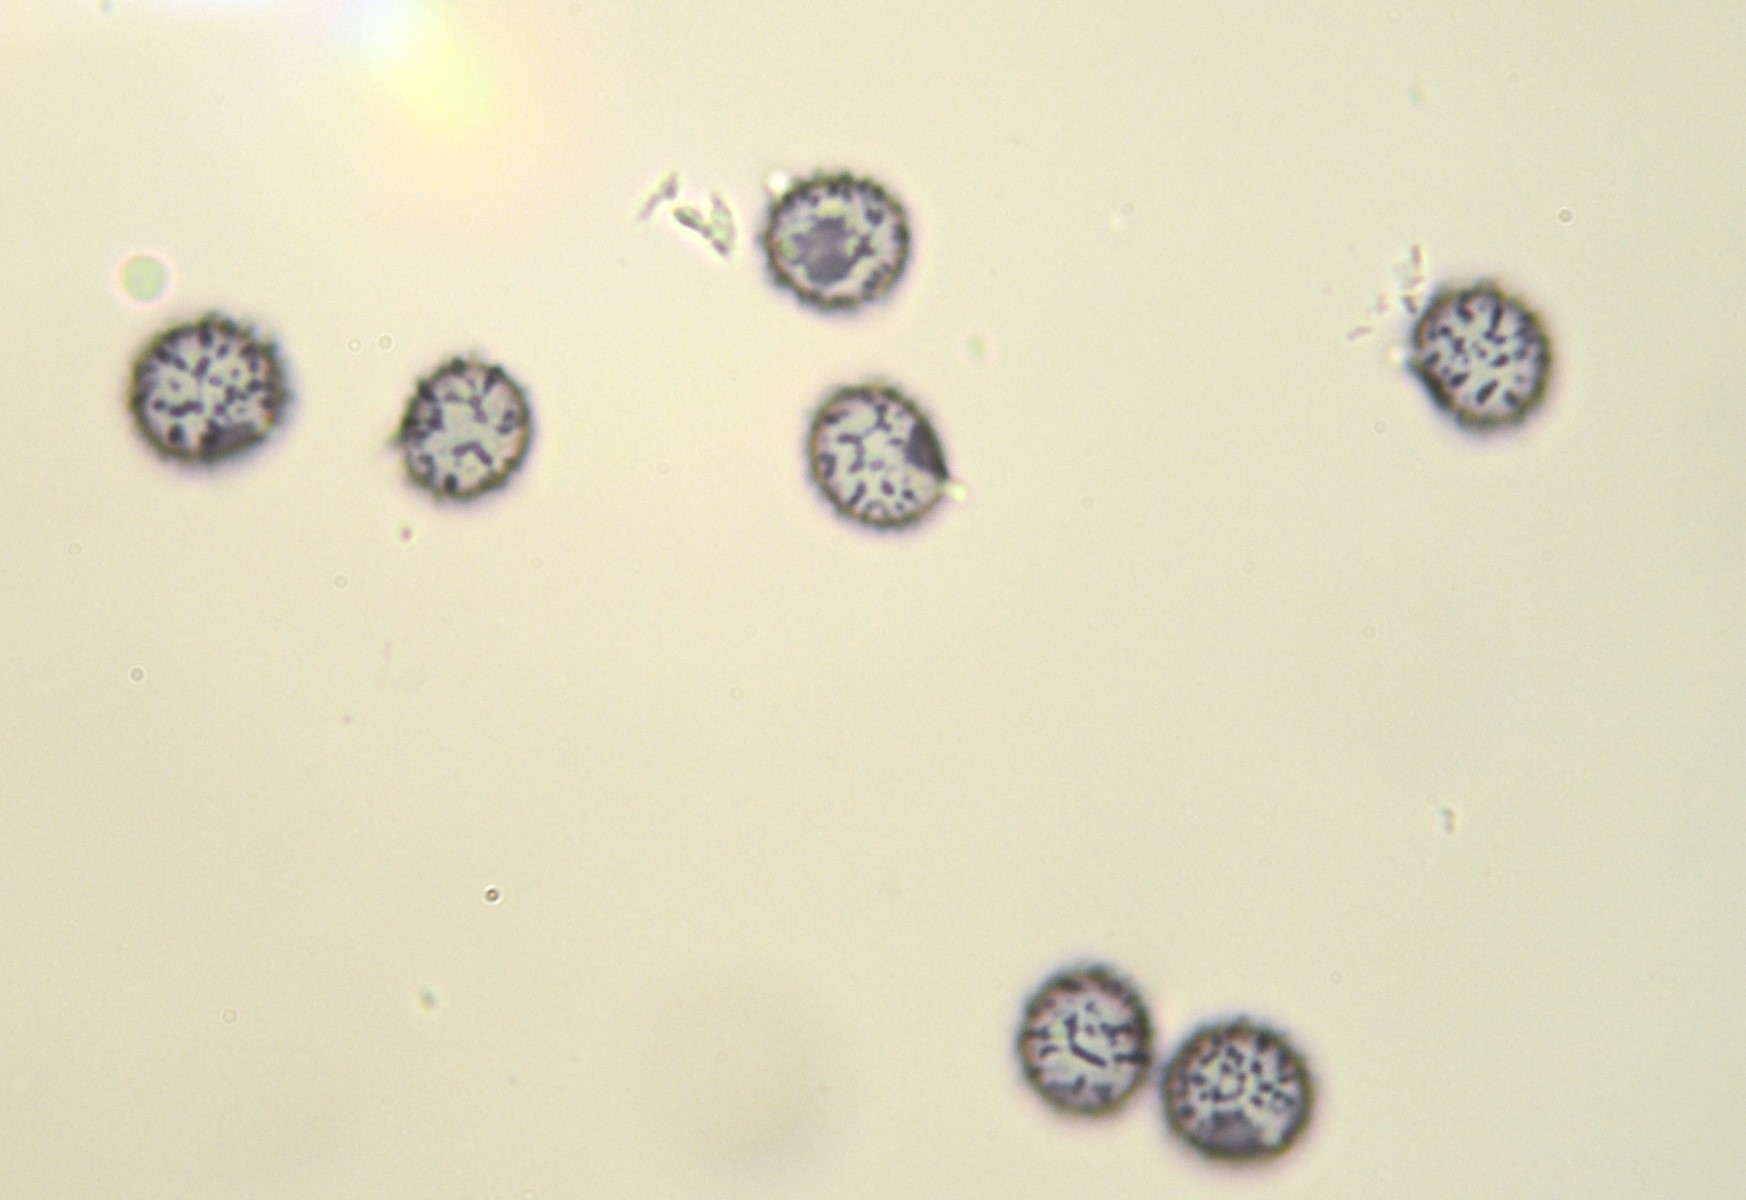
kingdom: Fungi
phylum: Basidiomycota
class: Agaricomycetes
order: Russulales
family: Russulaceae
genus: Russula
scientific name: Russula nitida
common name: året skørhat
